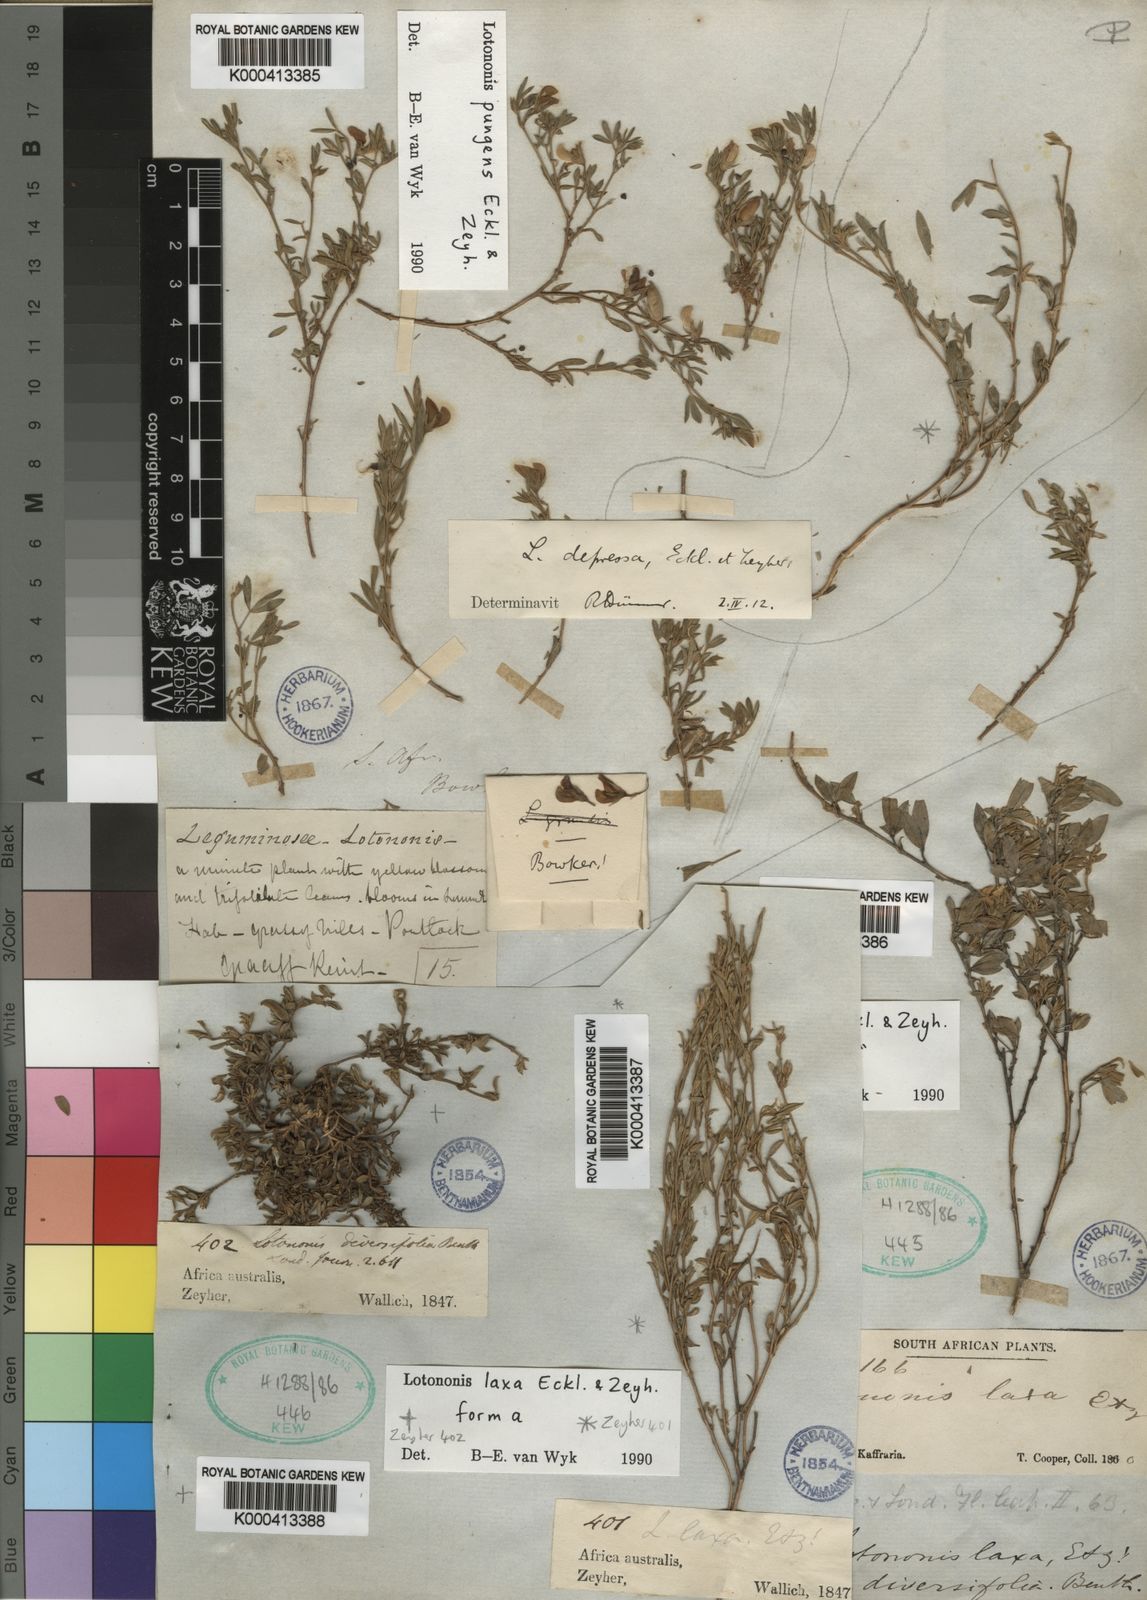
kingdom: Plantae
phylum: Tracheophyta
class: Magnoliopsida
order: Fabales
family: Fabaceae
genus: Lotononis
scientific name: Lotononis laxa
